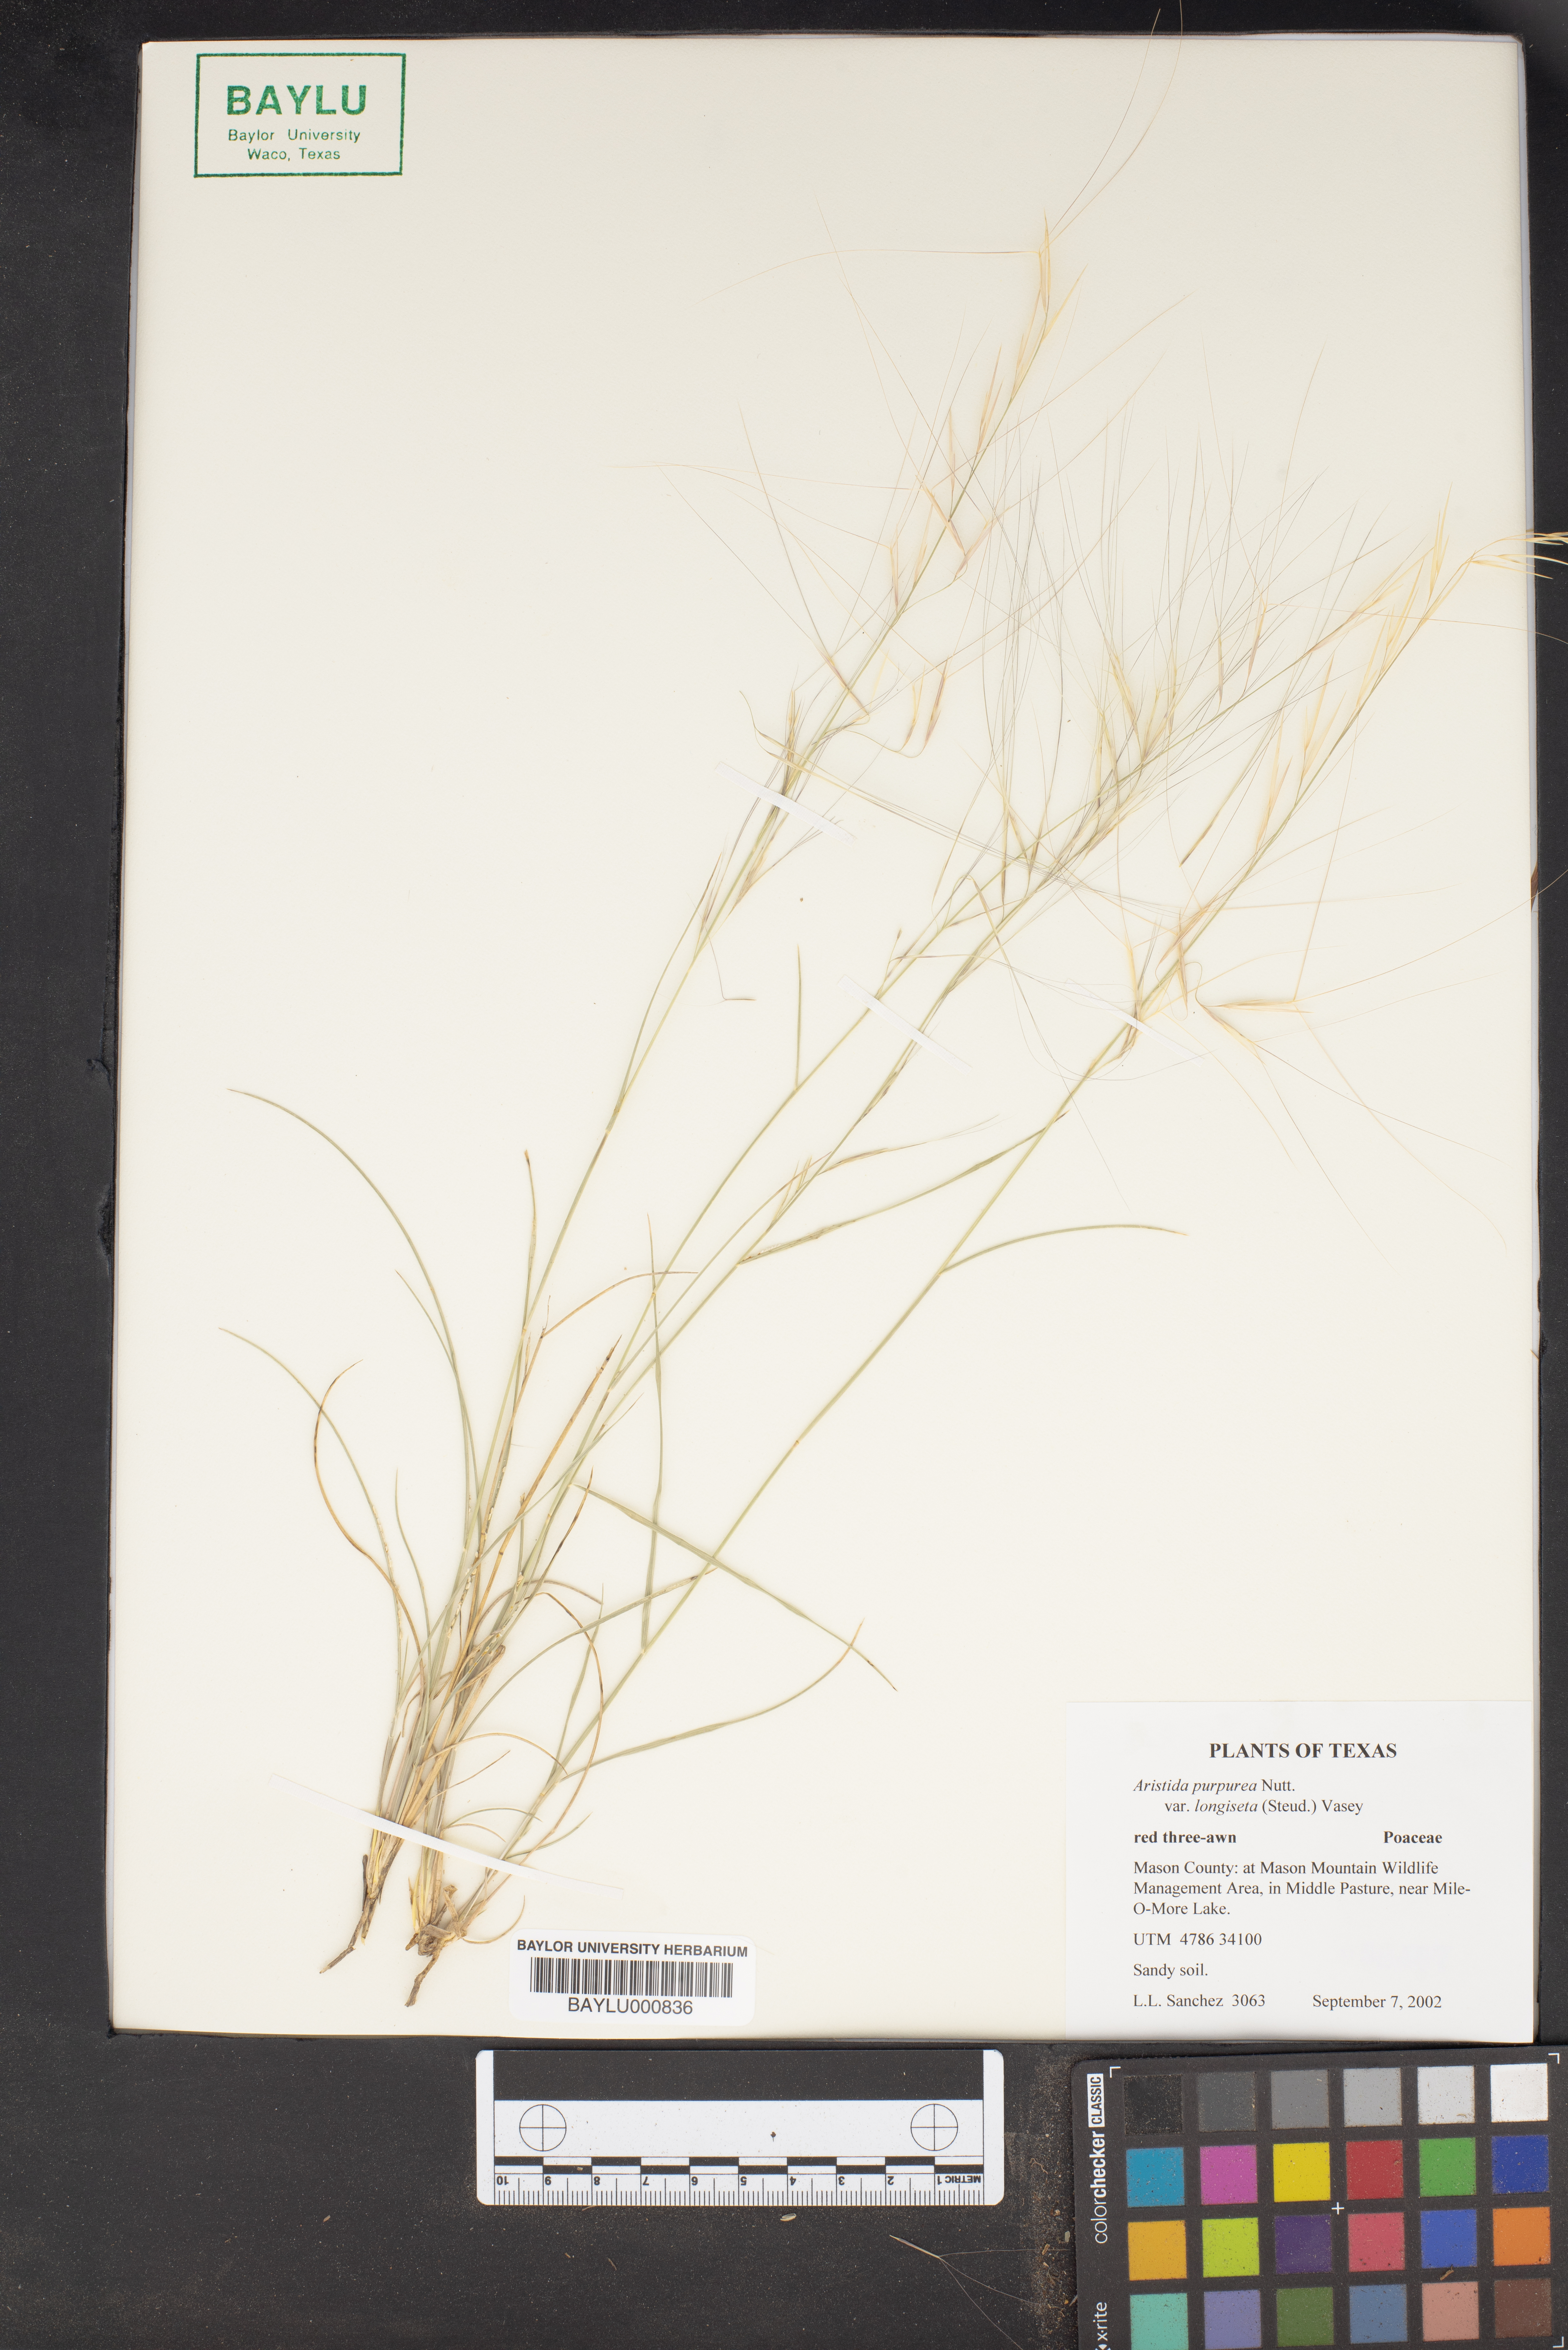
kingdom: Plantae
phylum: Tracheophyta
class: Liliopsida
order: Poales
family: Poaceae
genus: Aristida
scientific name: Aristida purpurea
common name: Purple threeawn
